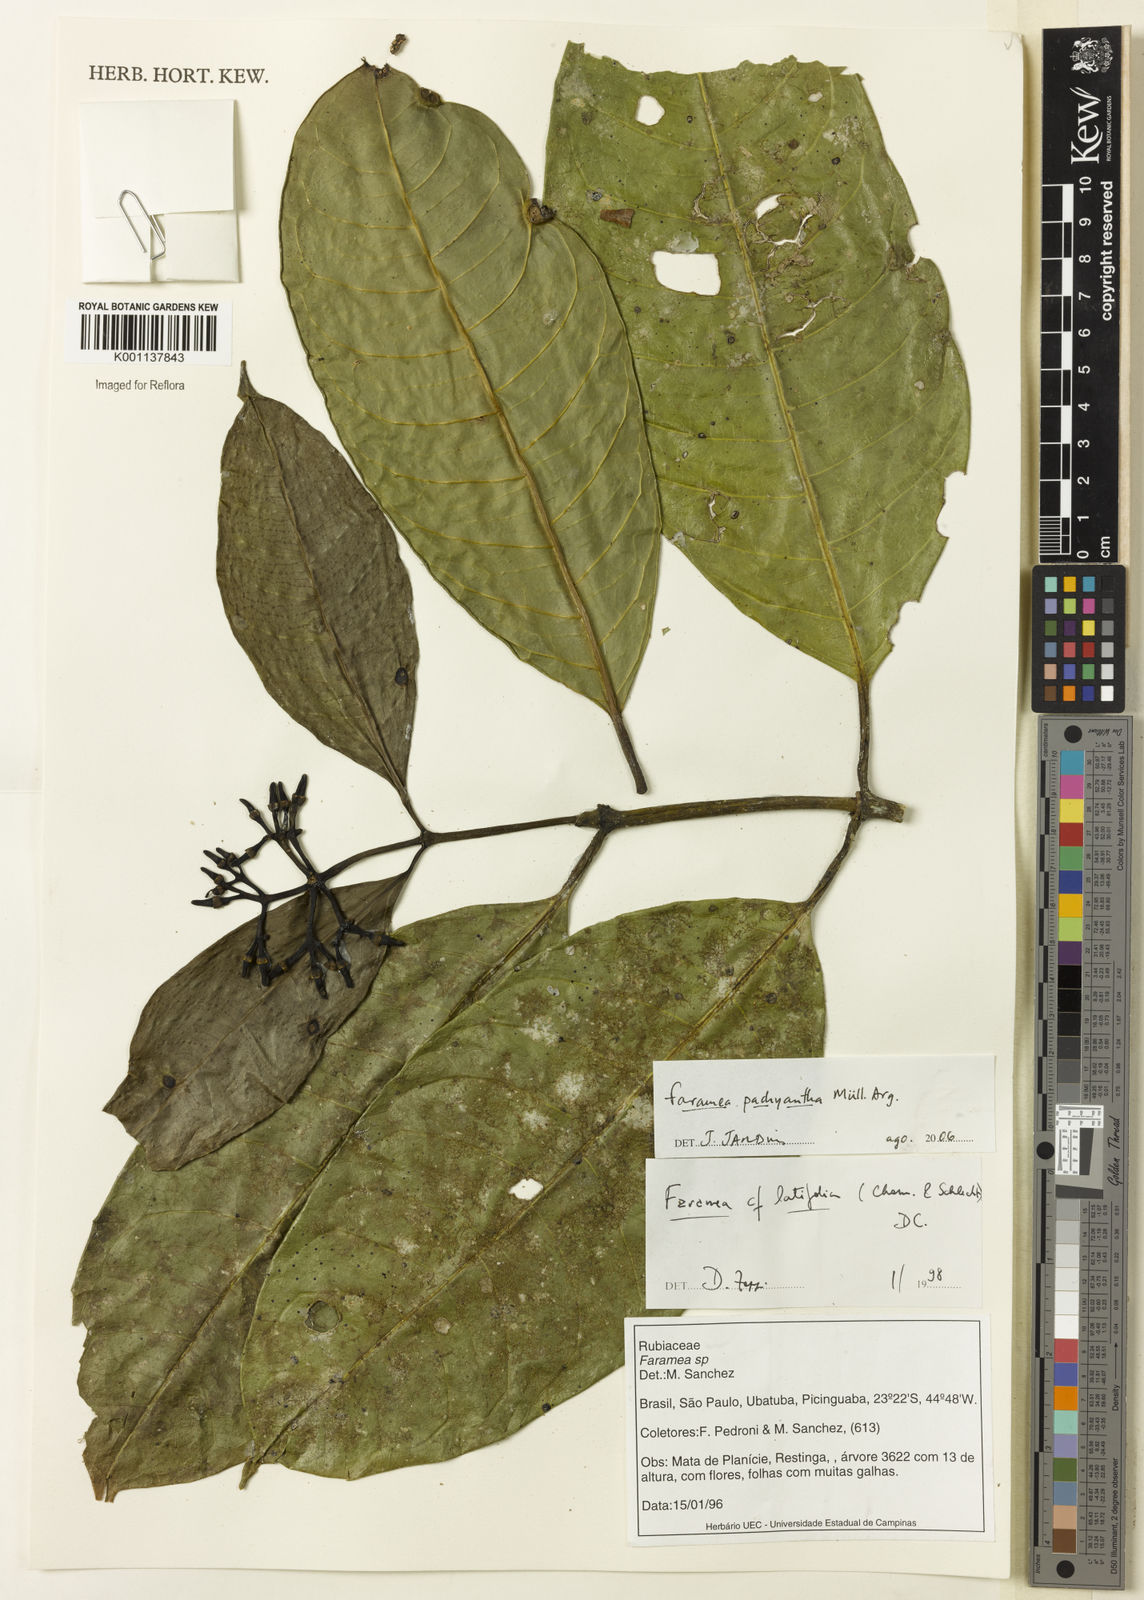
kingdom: Plantae
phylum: Tracheophyta
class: Magnoliopsida
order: Gentianales
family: Rubiaceae
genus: Faramea
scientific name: Faramea
